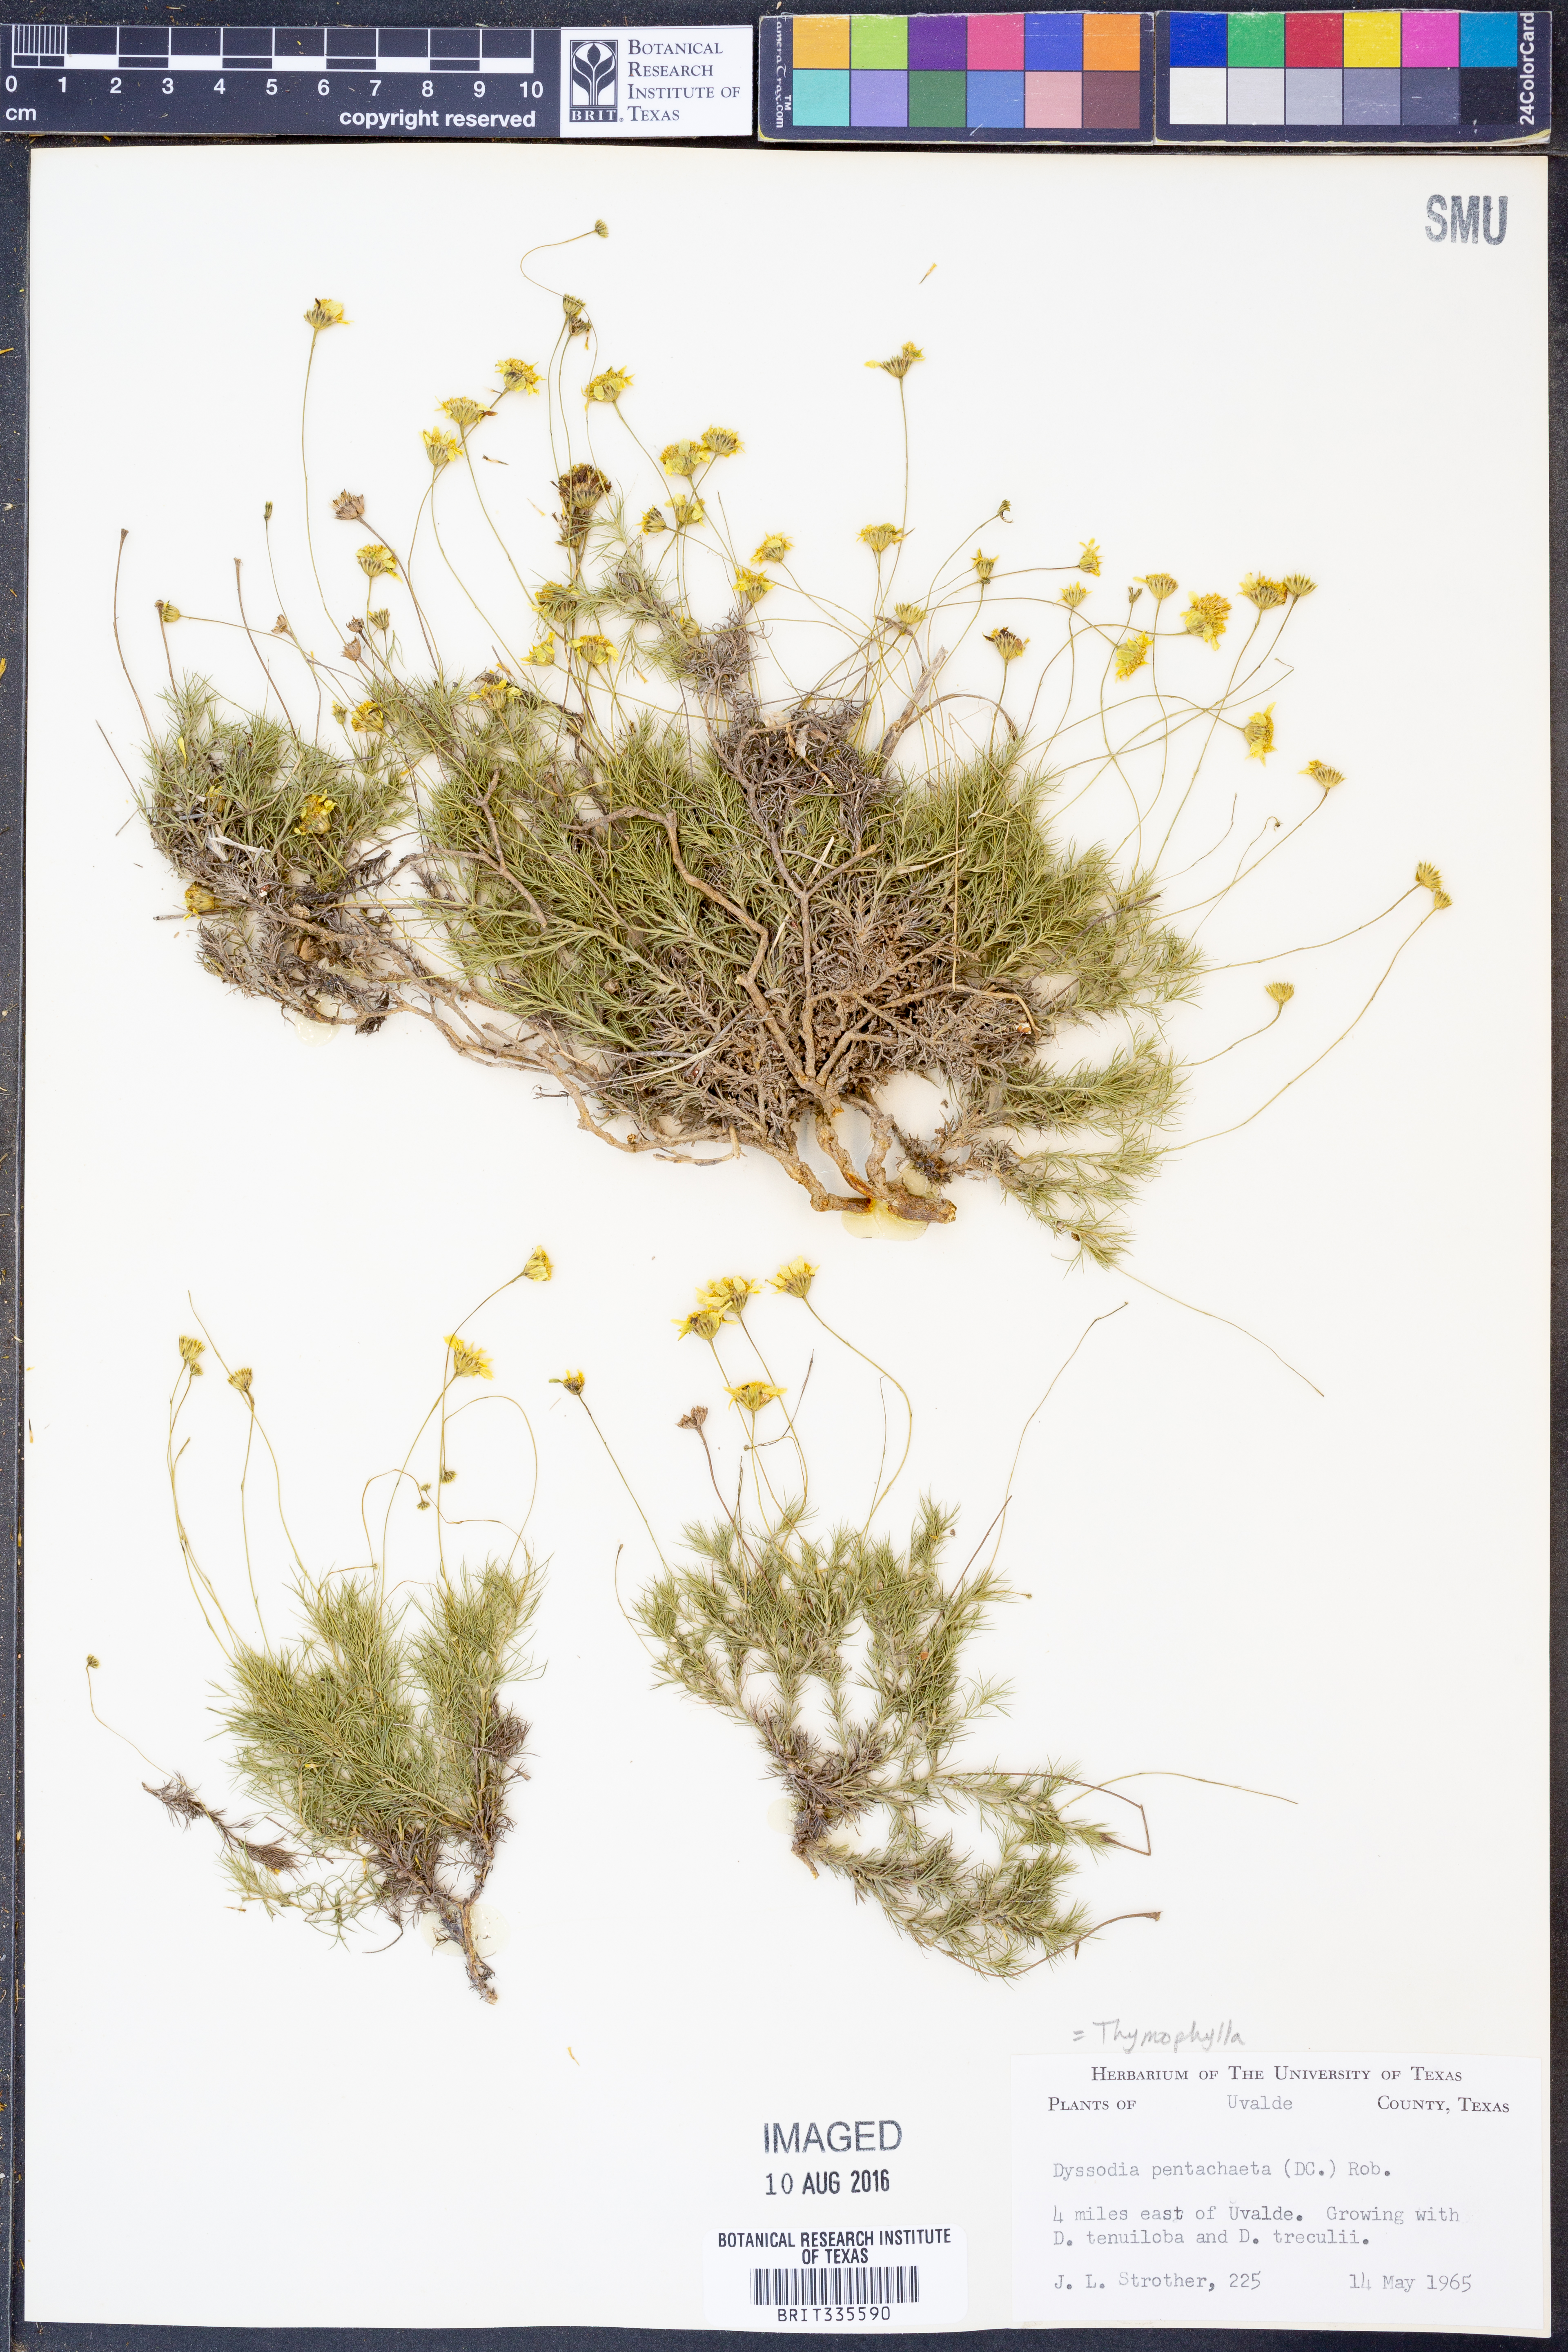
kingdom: Plantae
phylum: Tracheophyta
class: Magnoliopsida
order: Asterales
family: Asteraceae
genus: Thymophylla
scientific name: Thymophylla pentachaeta
